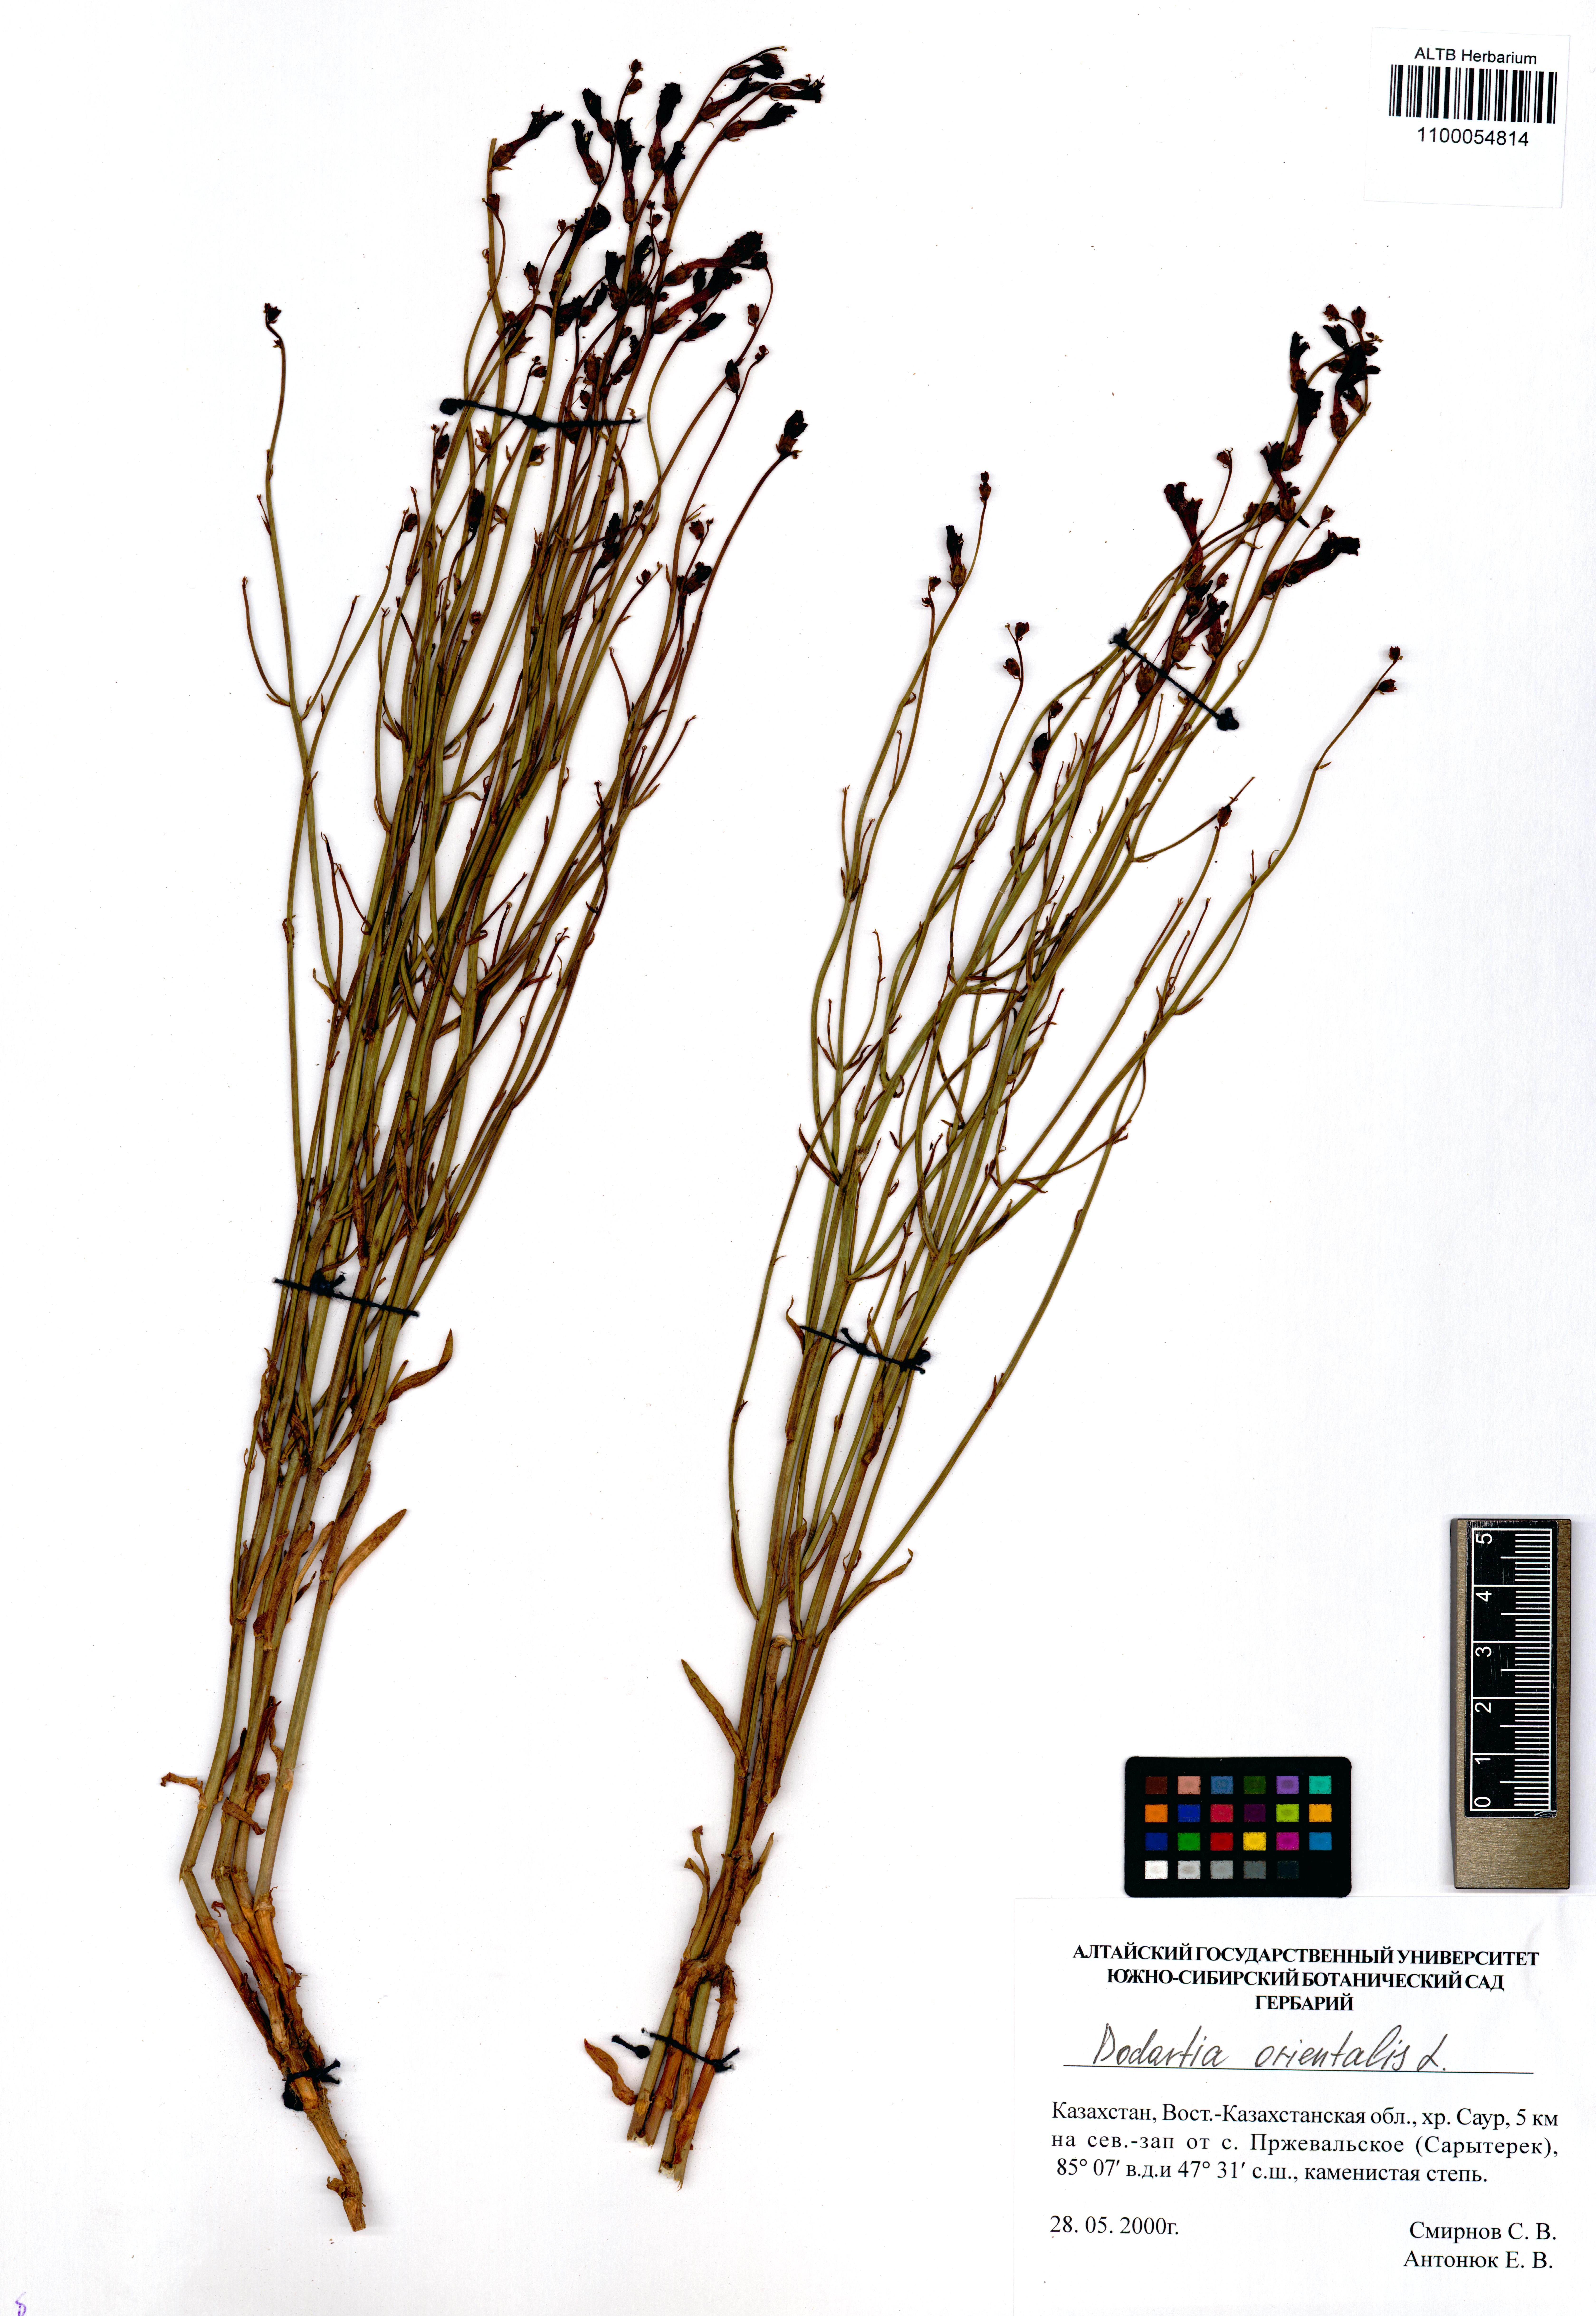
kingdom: Plantae
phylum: Tracheophyta
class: Magnoliopsida
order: Lamiales
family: Mazaceae
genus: Dodartia
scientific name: Dodartia orientalis
